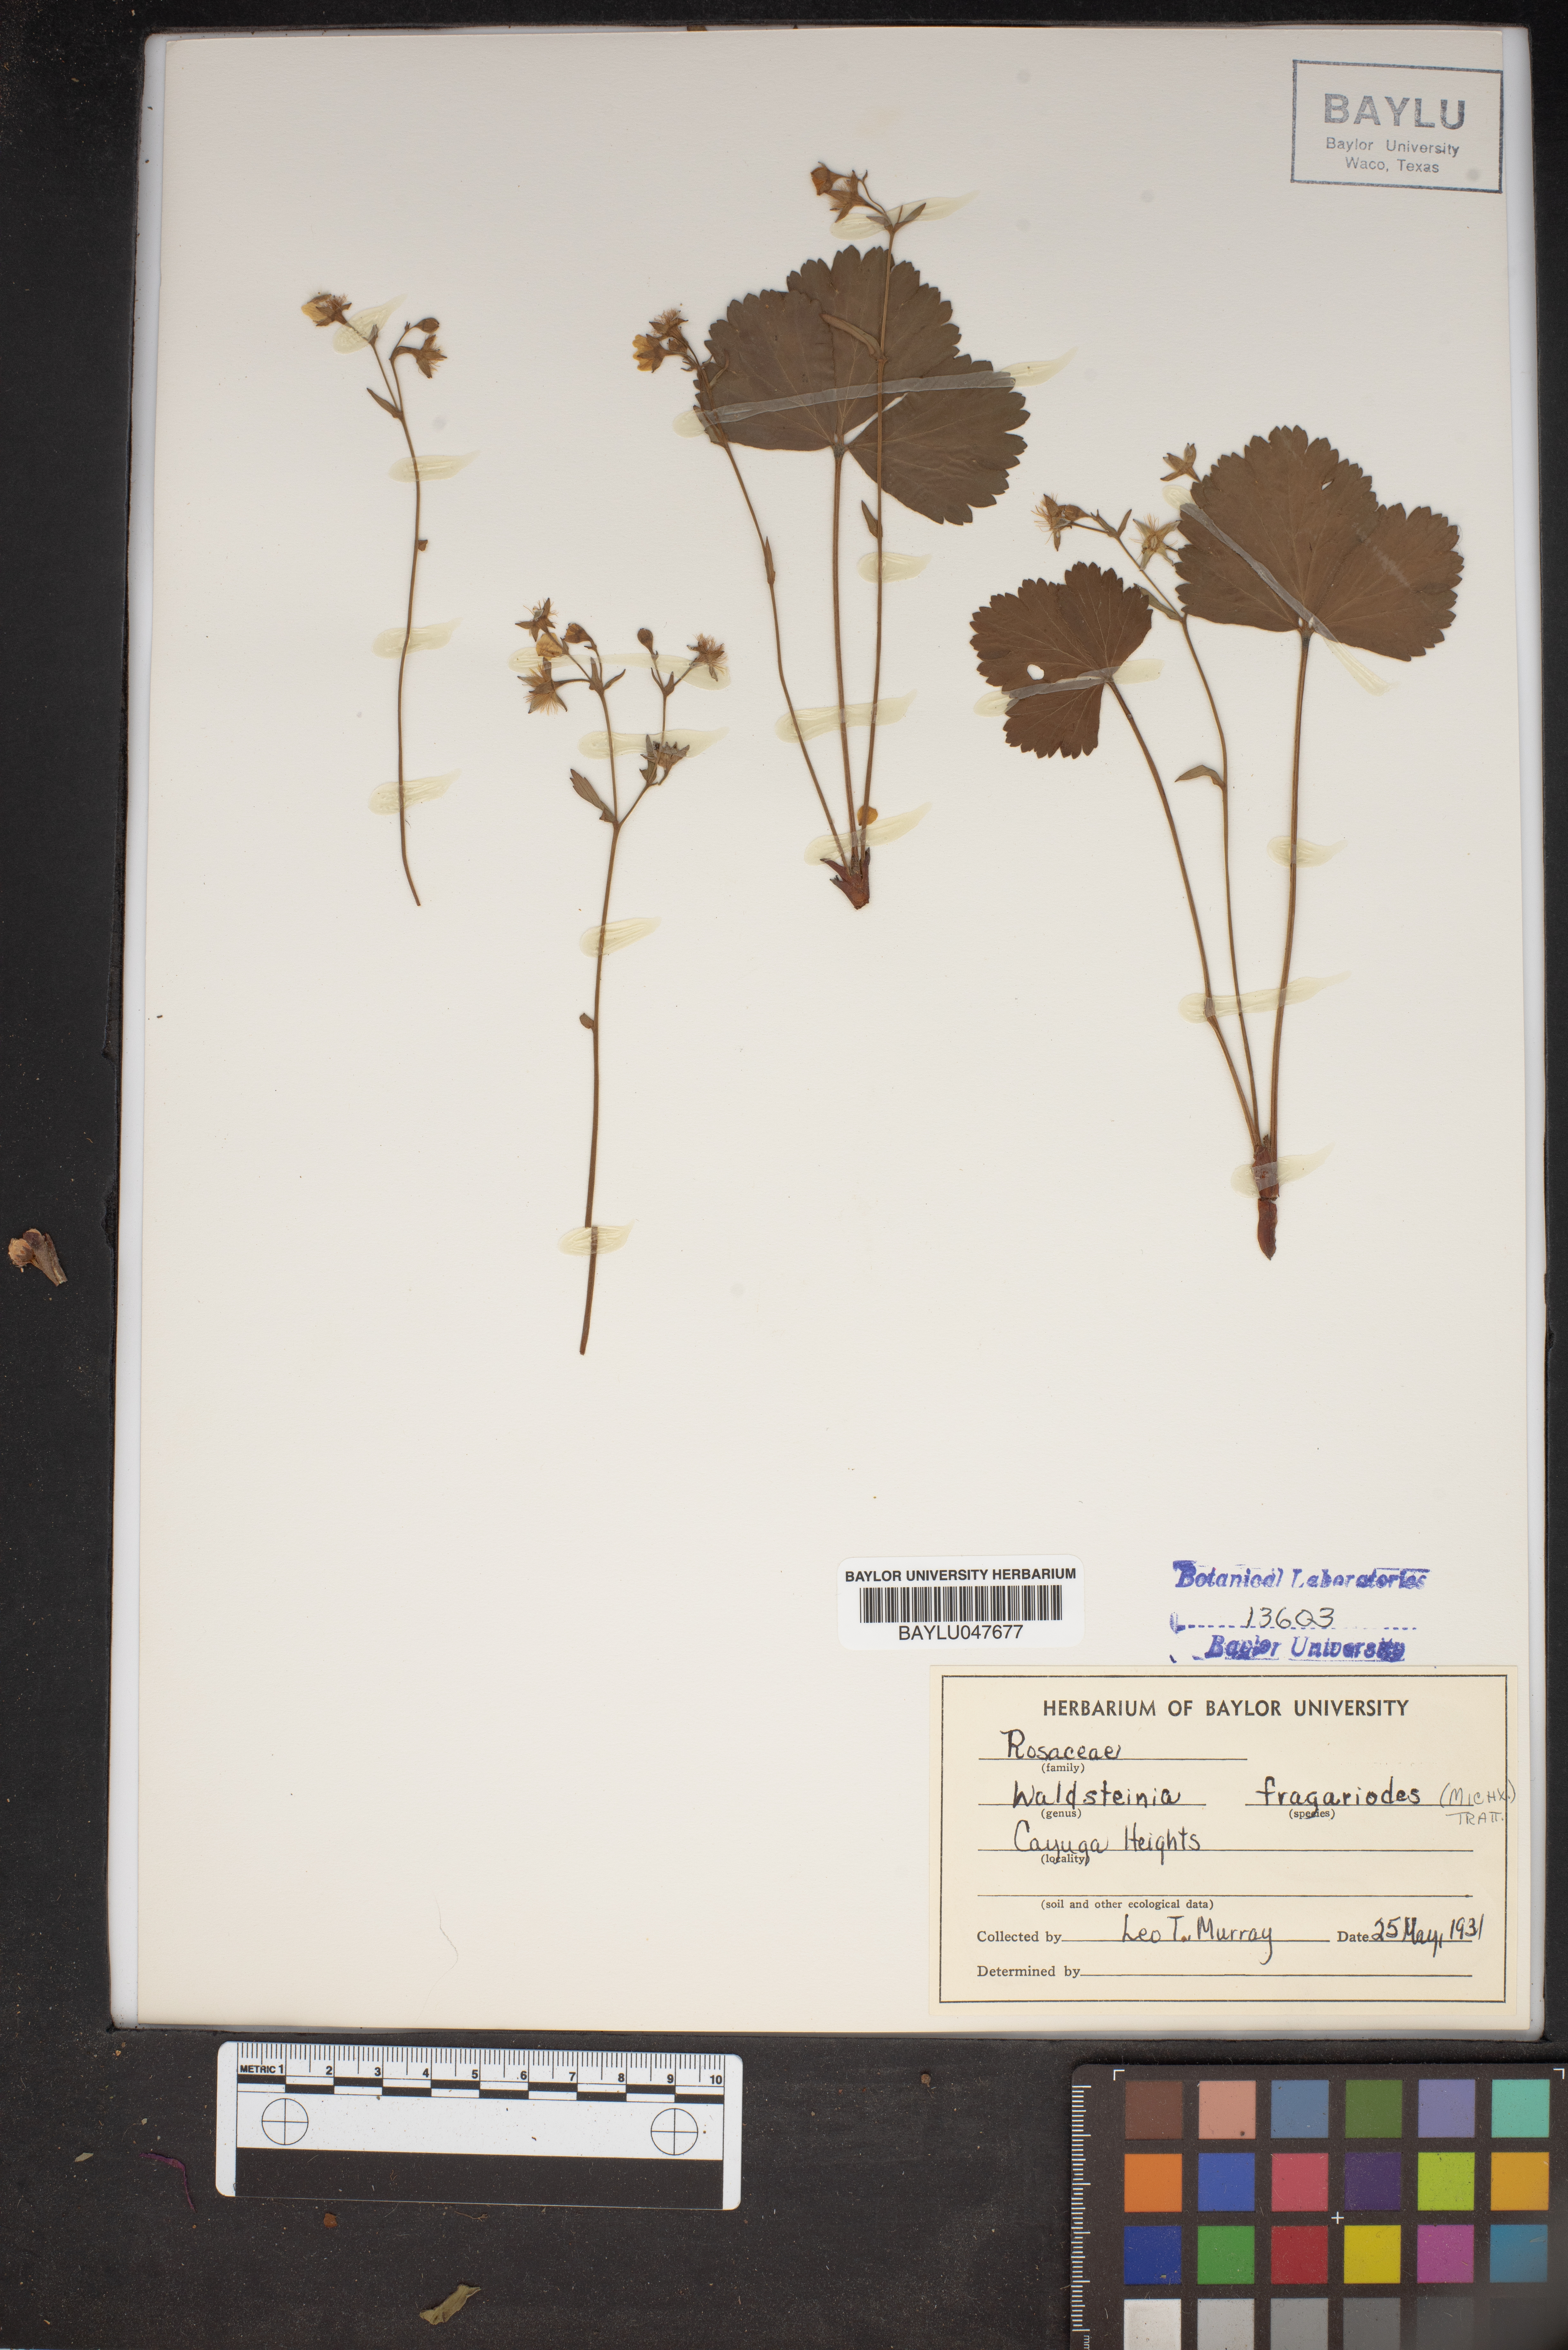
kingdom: Plantae
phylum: Tracheophyta
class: Magnoliopsida
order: Rosales
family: Rosaceae
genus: Geum
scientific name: Geum fragarioides
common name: Appalachian barren strawberry
